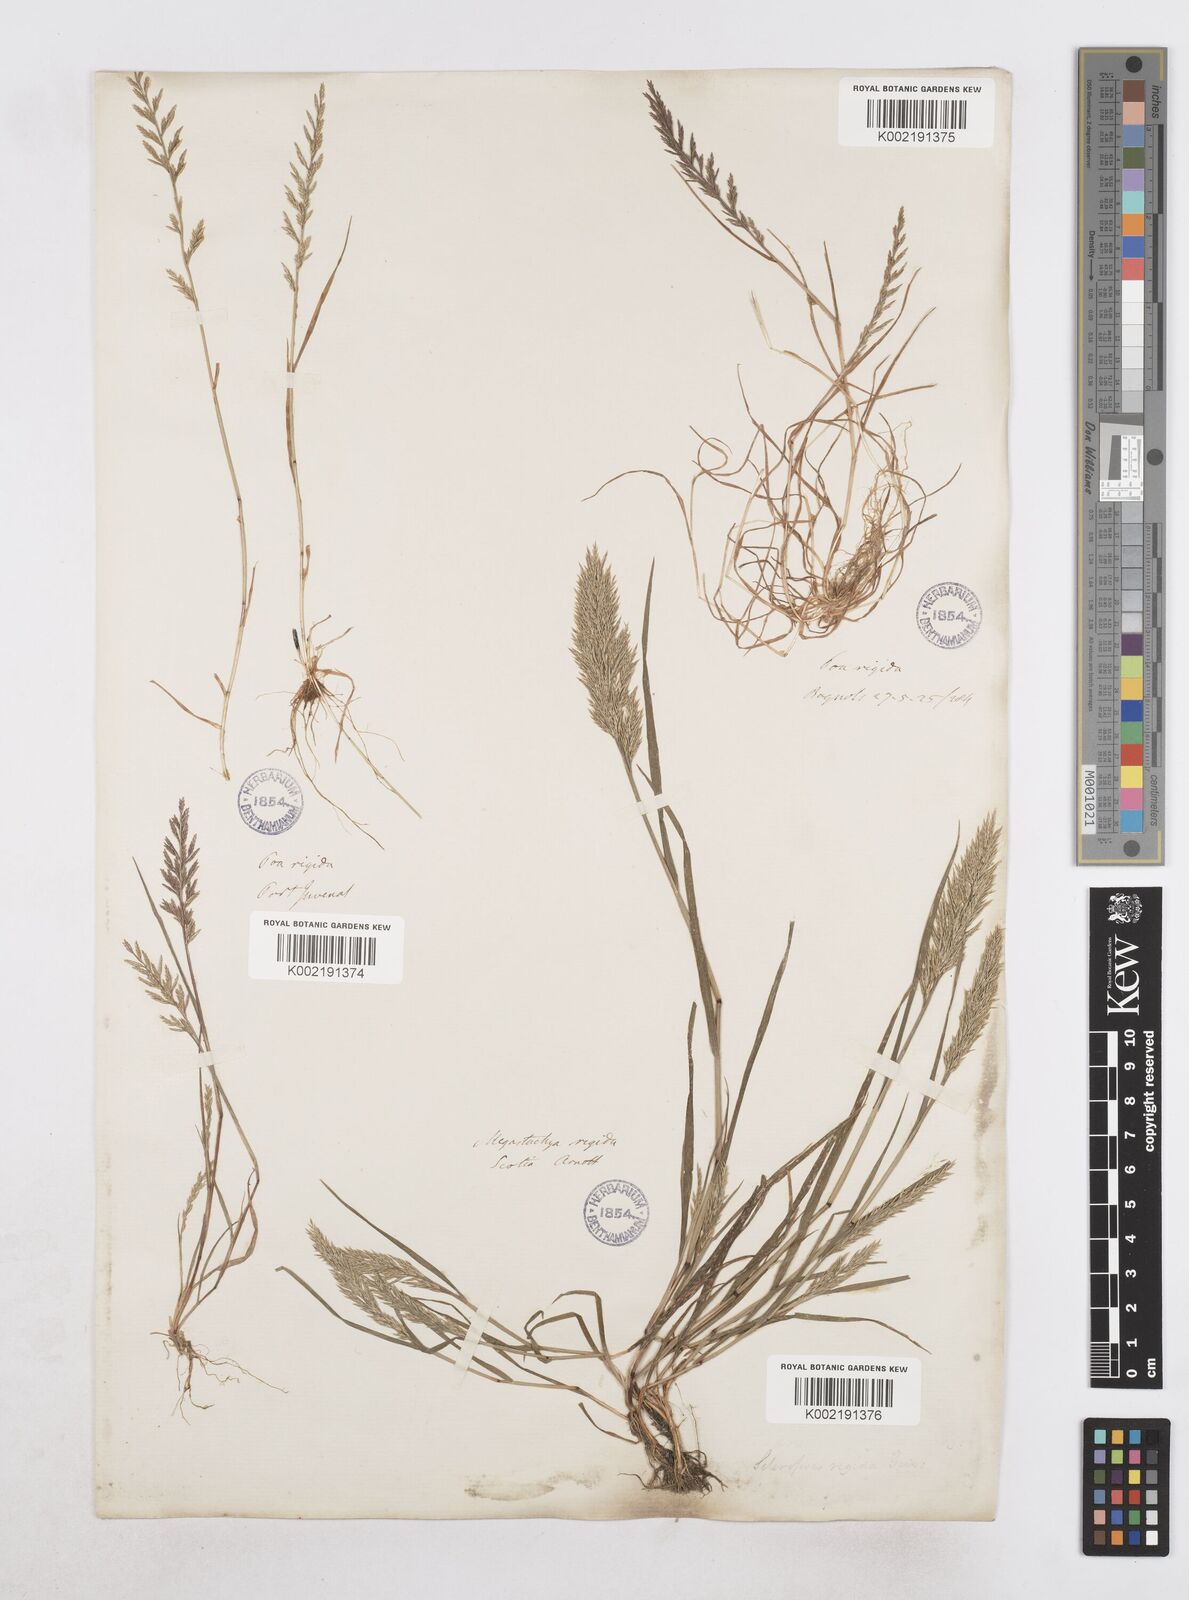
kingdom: Plantae
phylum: Tracheophyta
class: Liliopsida
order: Poales
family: Poaceae
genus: Catapodium
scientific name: Catapodium rigidum
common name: Fern-grass
